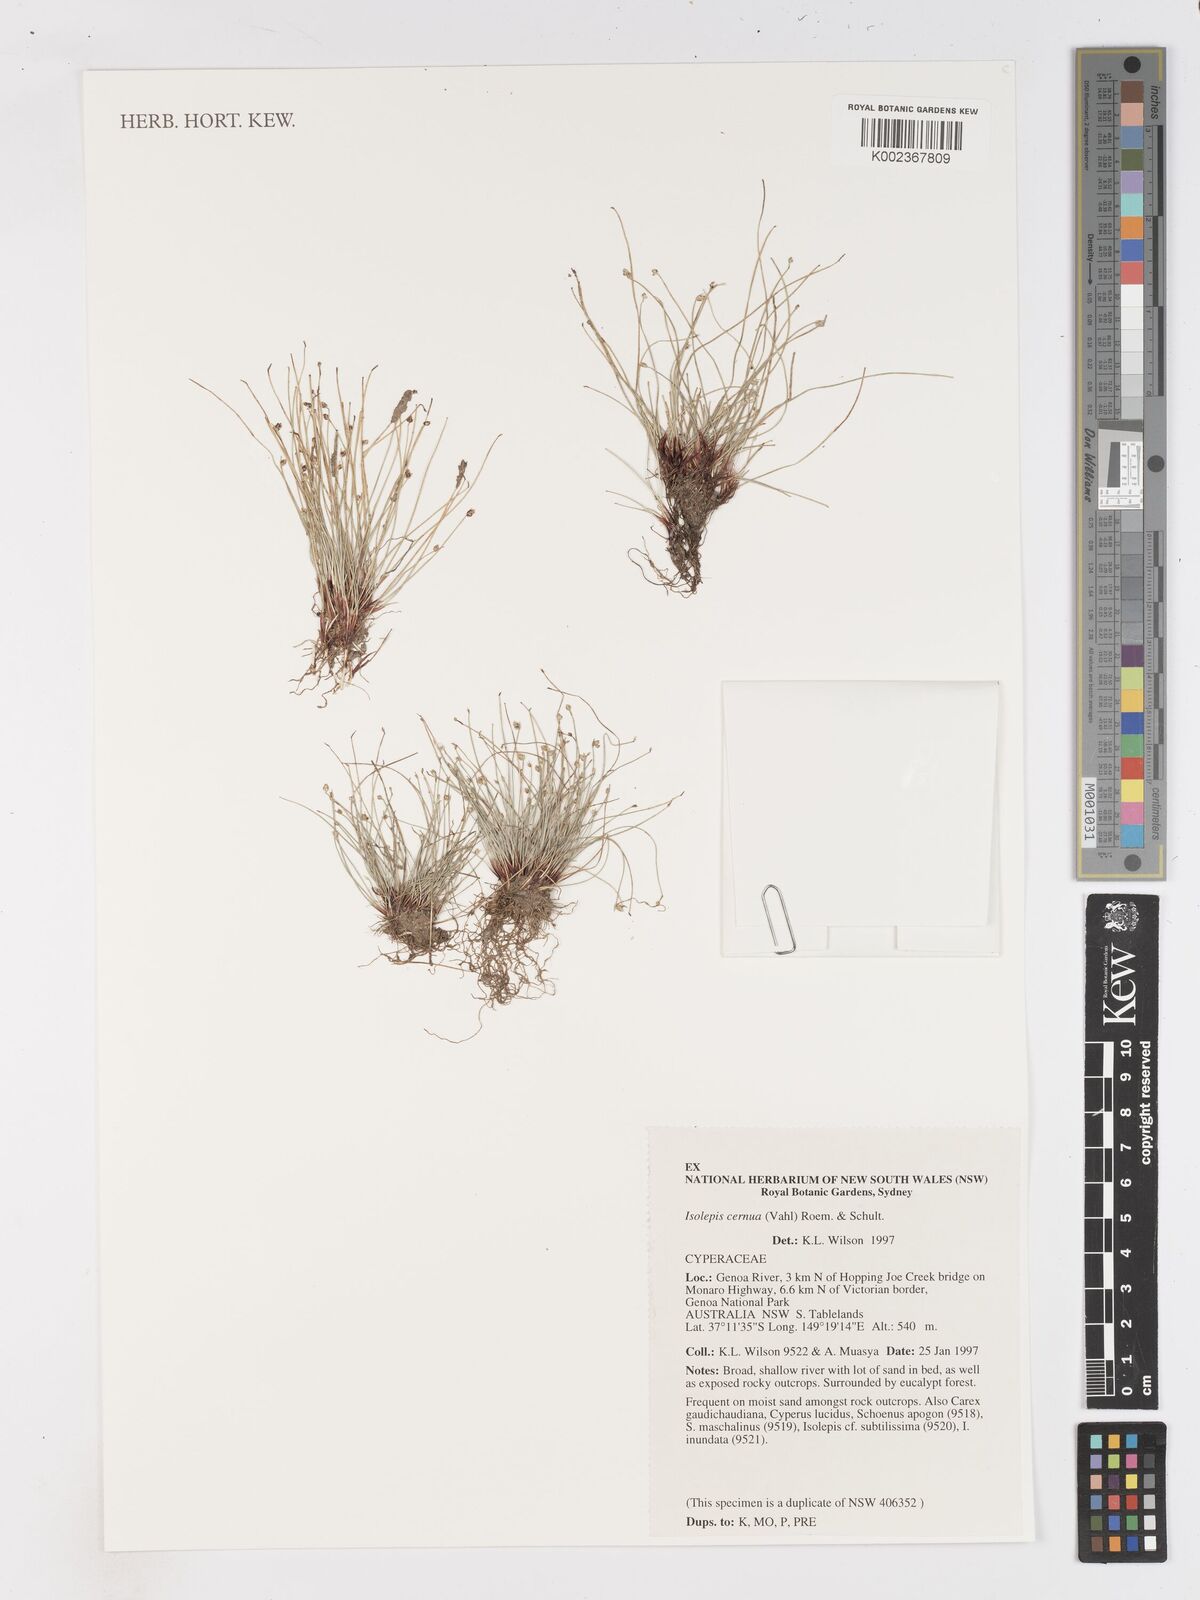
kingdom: Plantae
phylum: Tracheophyta
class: Liliopsida
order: Poales
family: Cyperaceae
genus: Isolepis
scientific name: Isolepis cernua
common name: Slender club-rush
